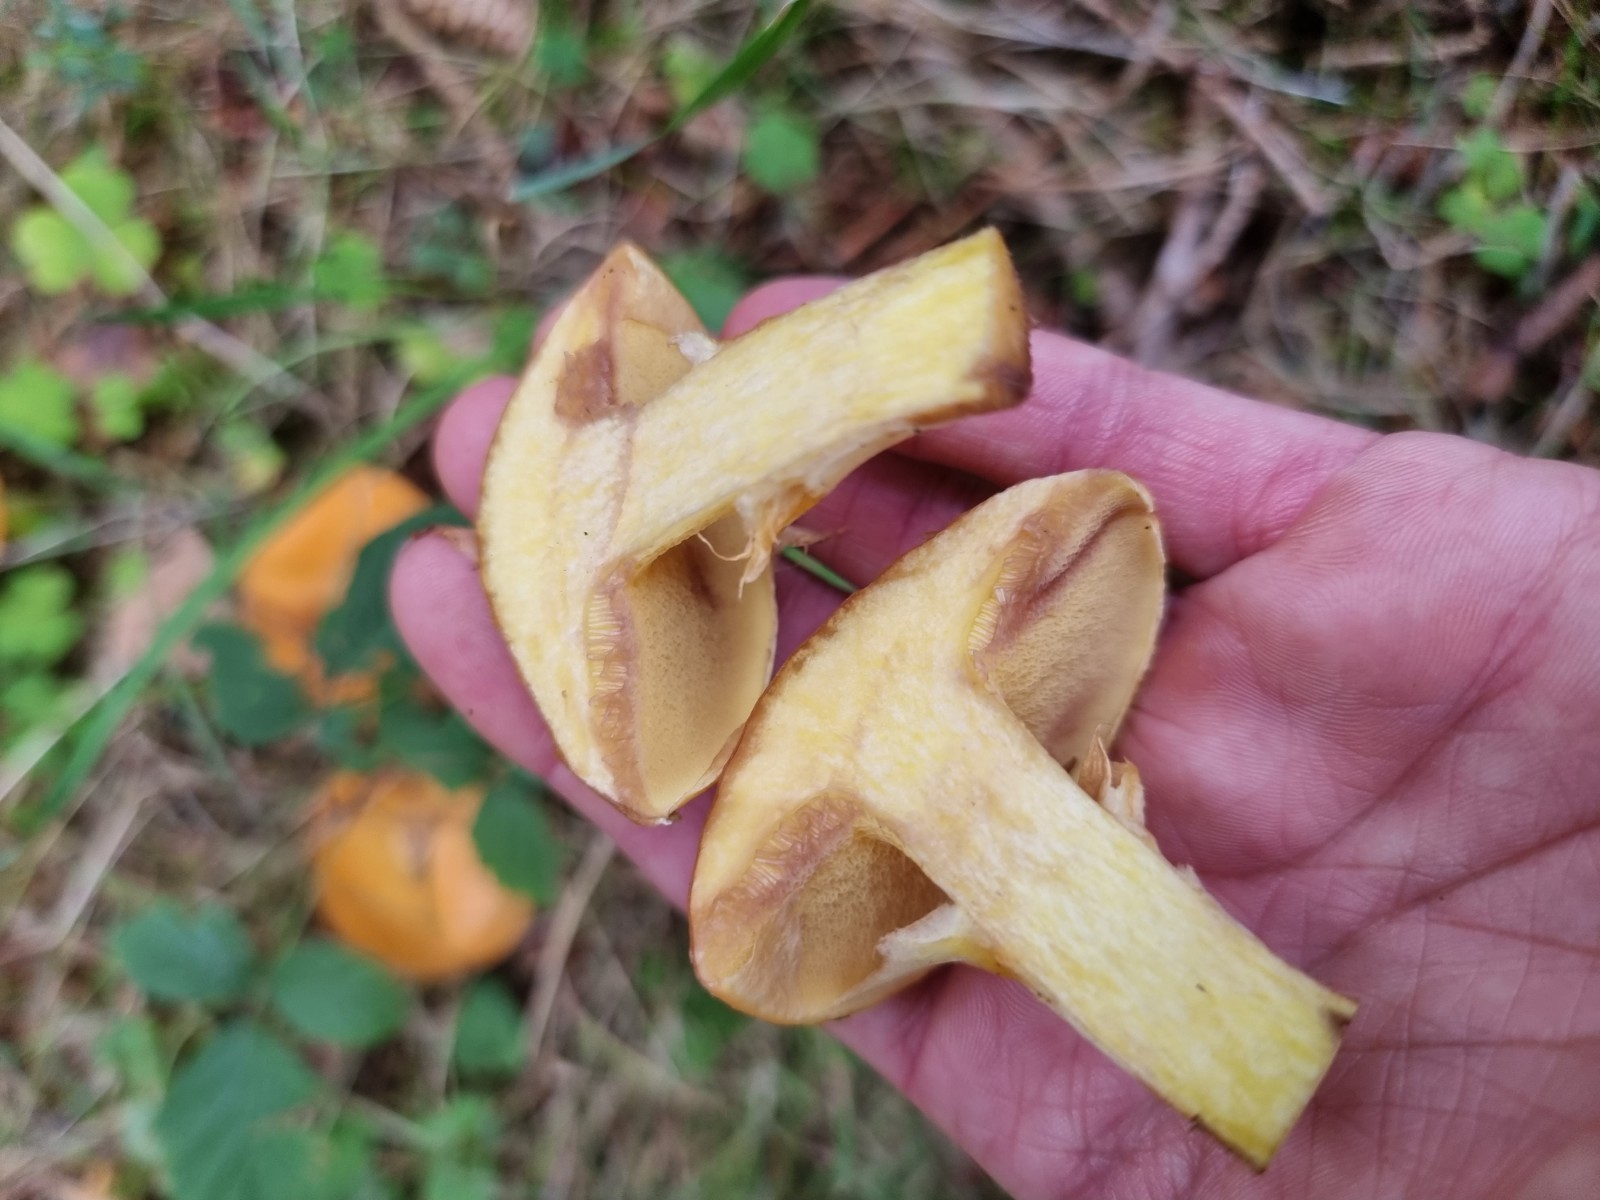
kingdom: Fungi
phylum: Basidiomycota
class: Agaricomycetes
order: Boletales
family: Suillaceae
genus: Suillus
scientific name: Suillus grevillei
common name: lærke-slimrørhat
